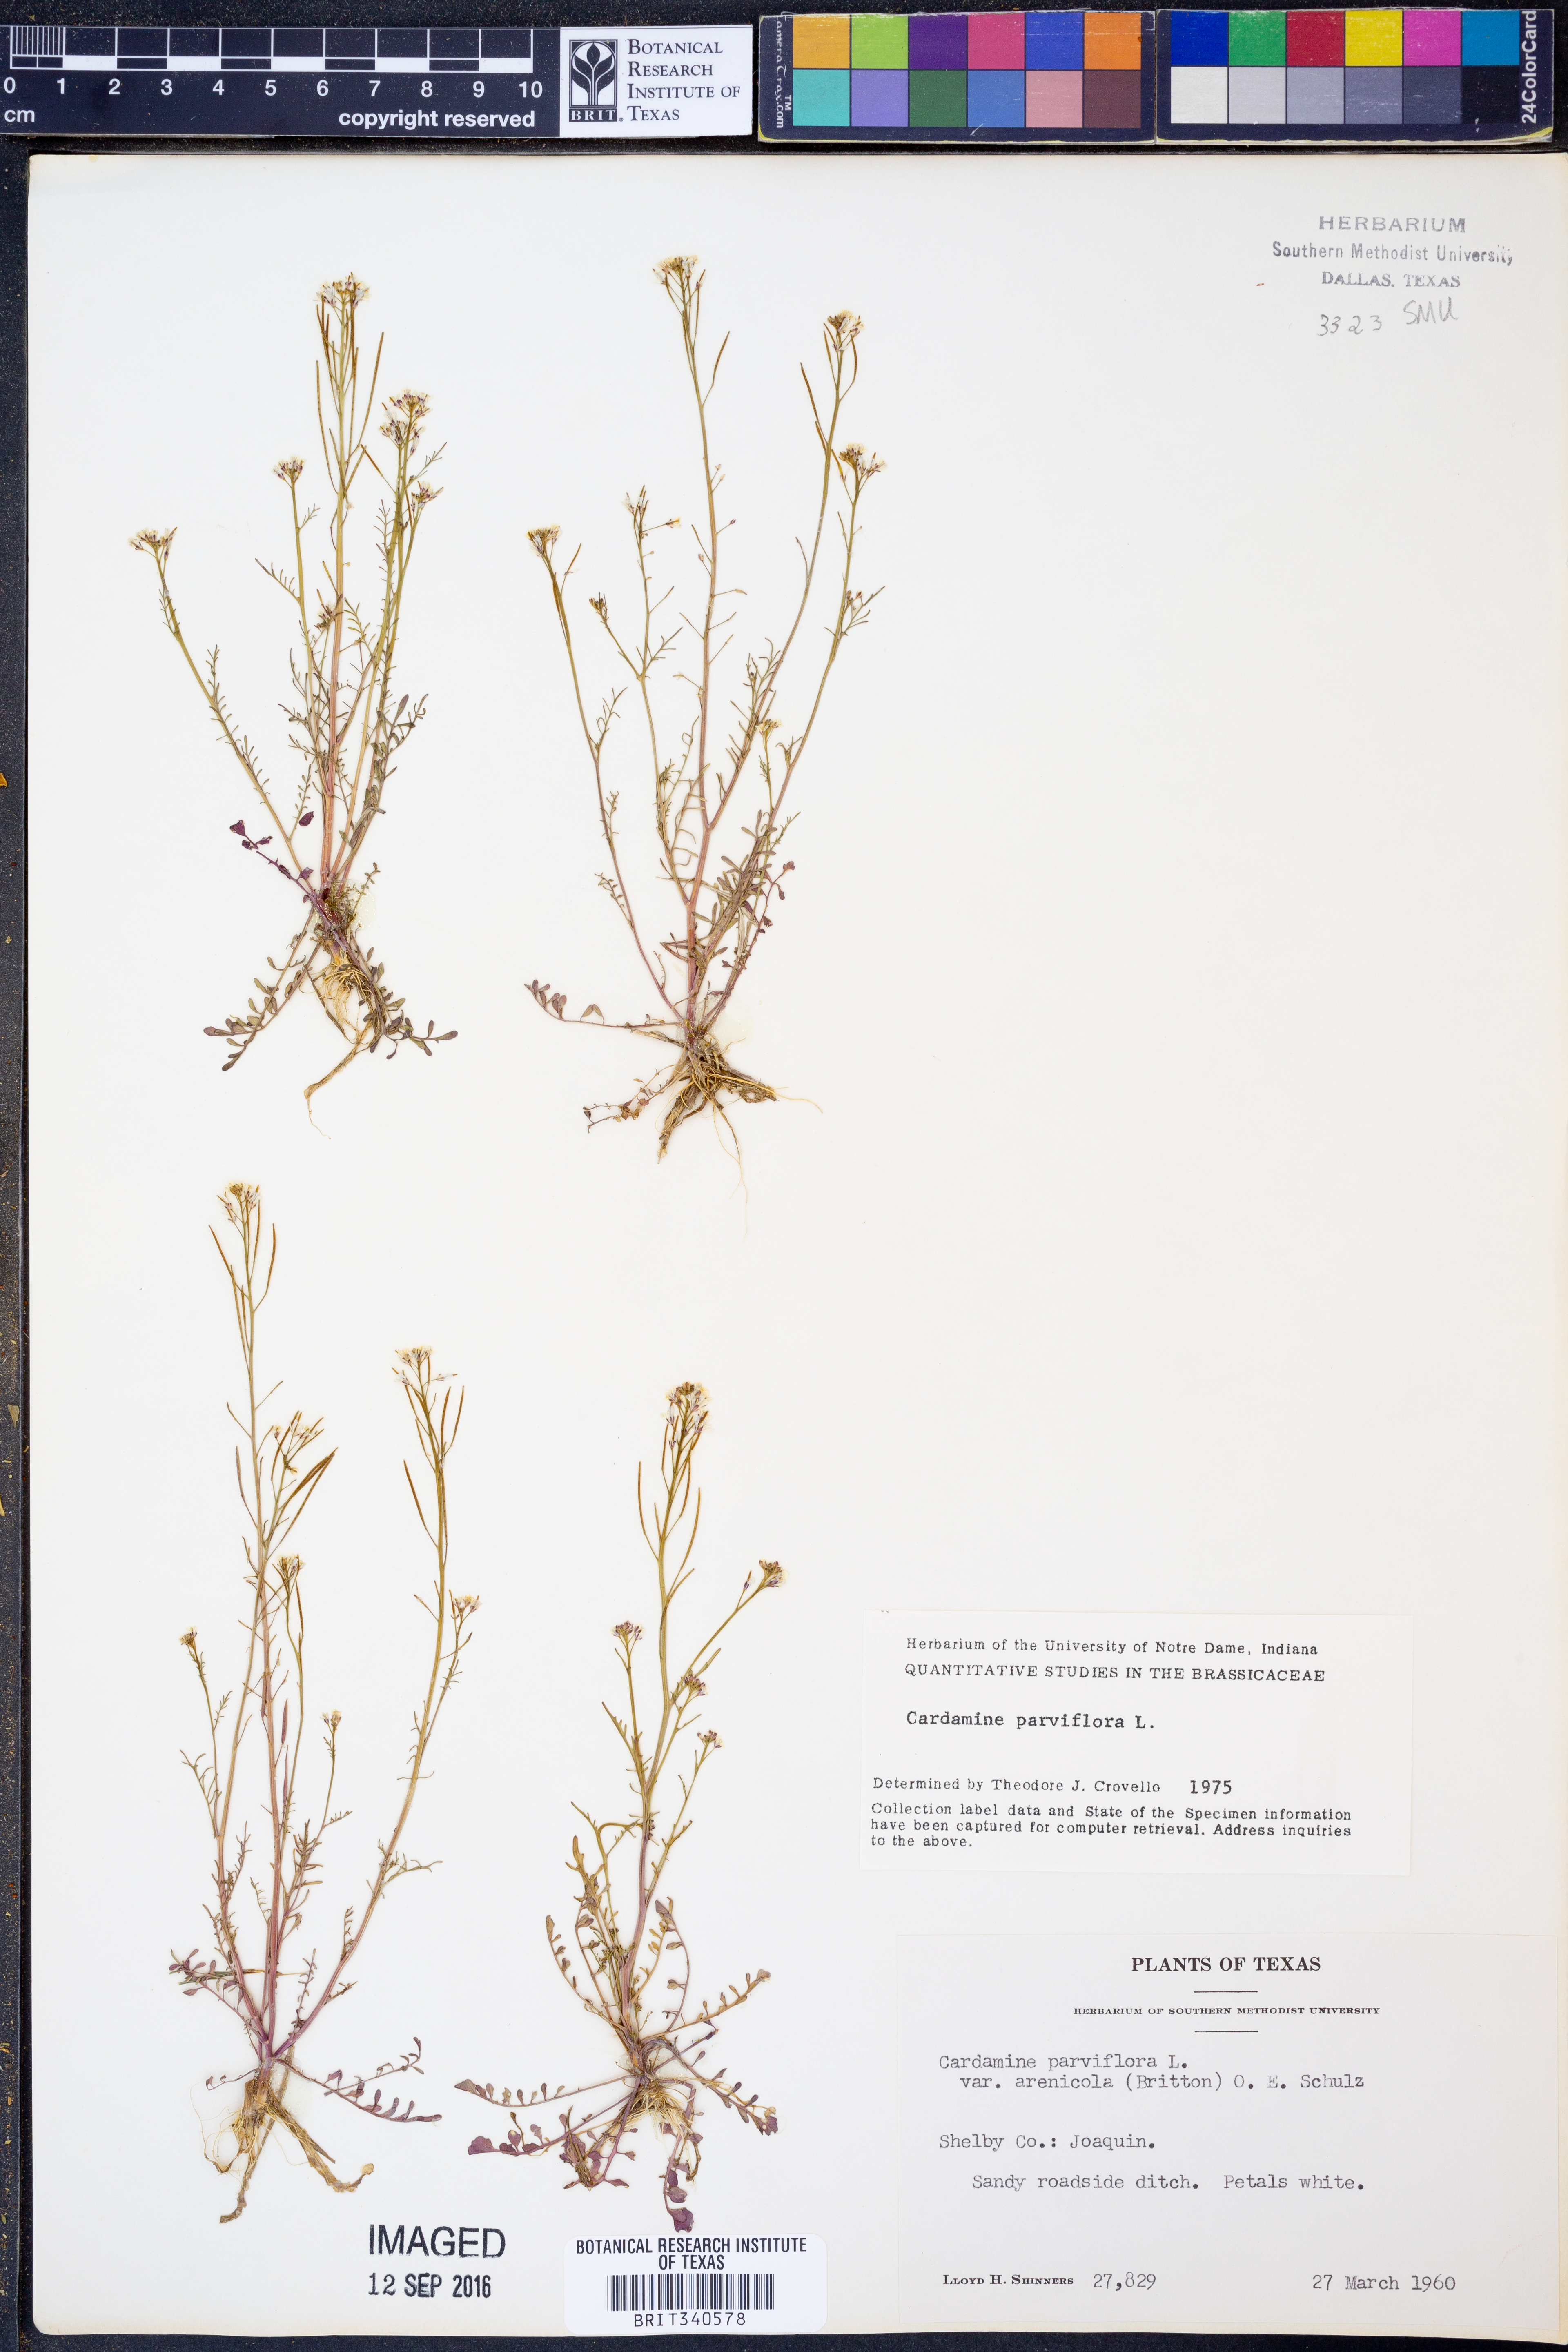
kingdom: Plantae
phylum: Tracheophyta
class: Magnoliopsida
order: Brassicales
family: Brassicaceae
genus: Cardamine
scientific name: Cardamine parviflora
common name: Sand bittercress
